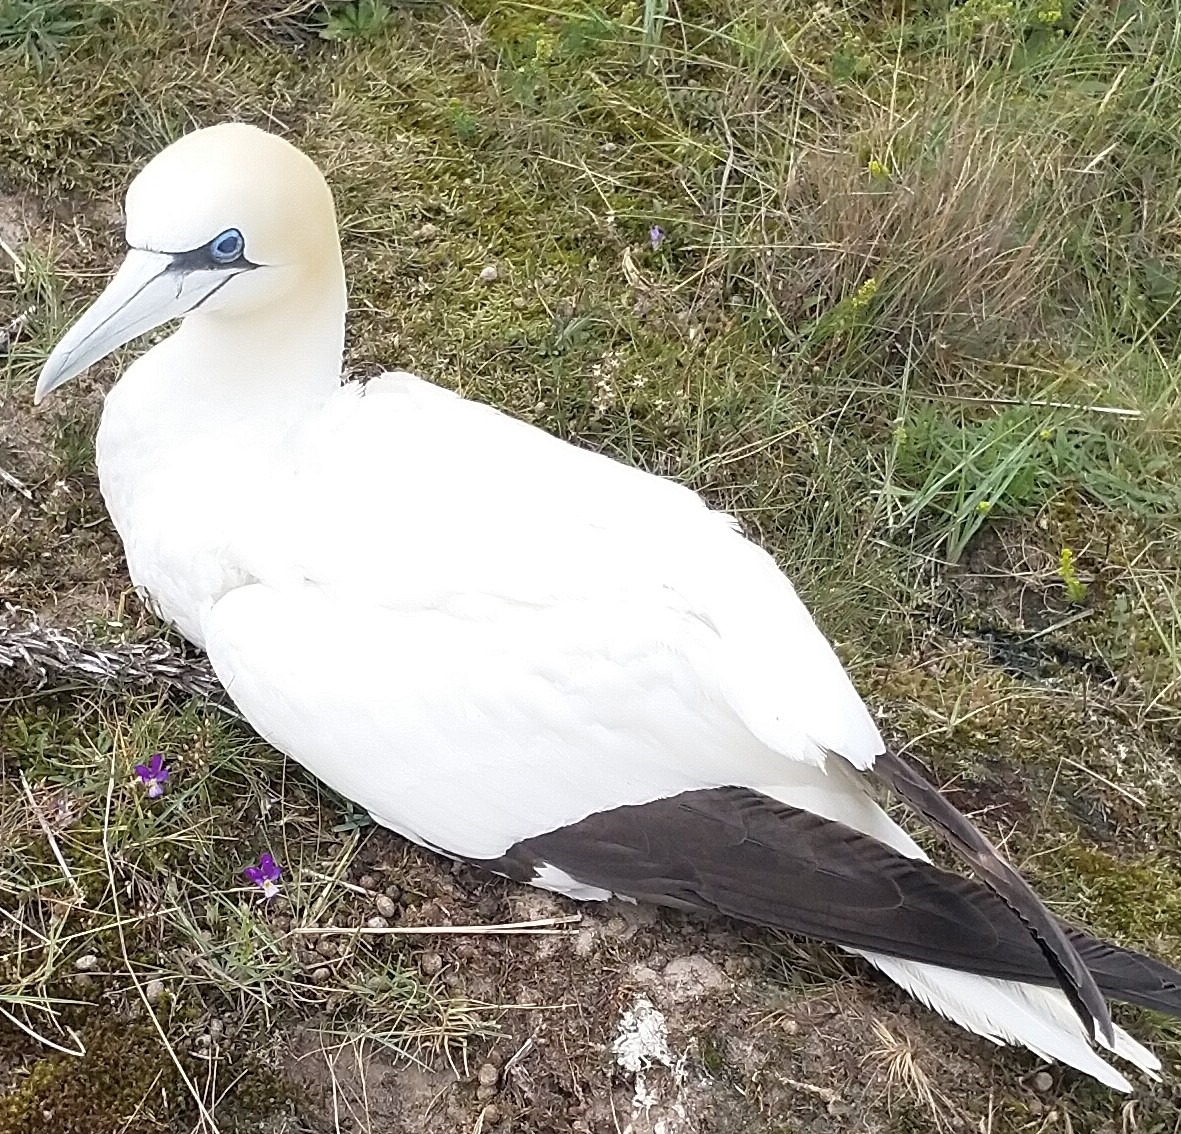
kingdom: Animalia
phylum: Chordata
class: Aves
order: Suliformes
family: Sulidae
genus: Morus
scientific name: Morus bassanus
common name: Sule
